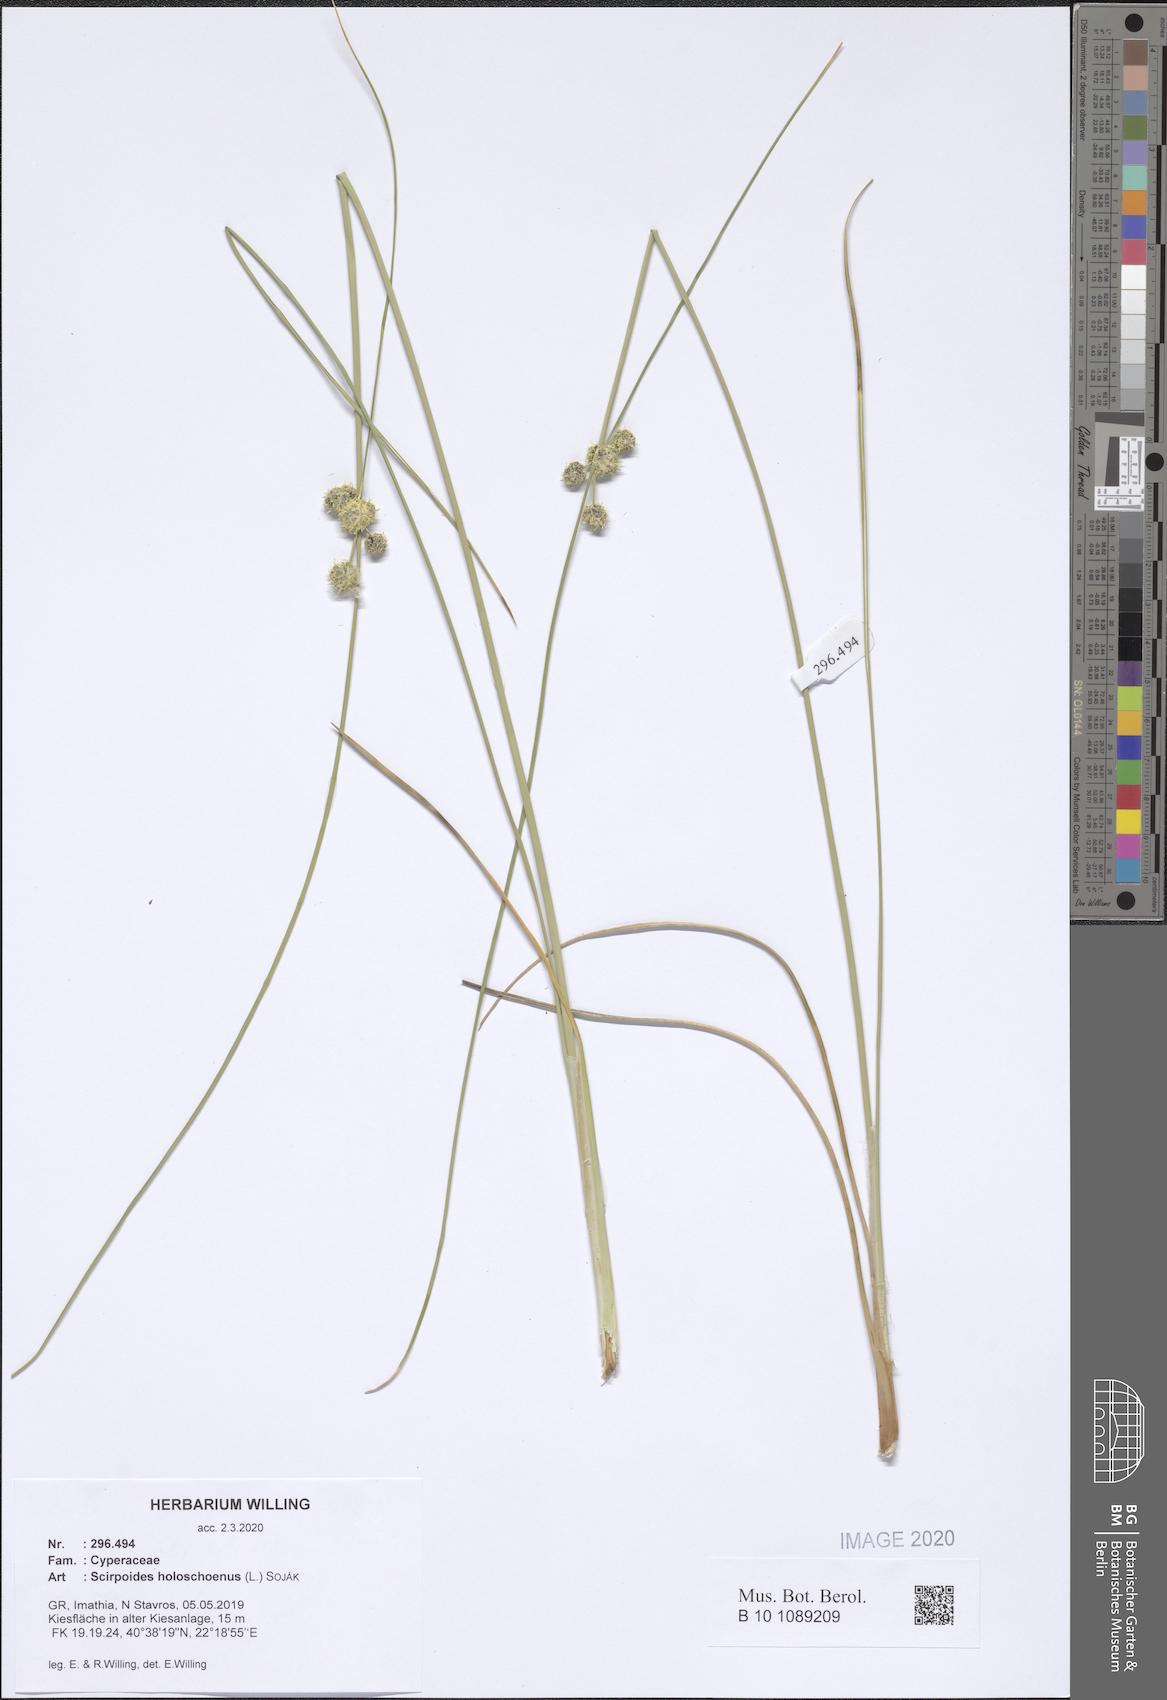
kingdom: Plantae
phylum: Tracheophyta
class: Liliopsida
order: Poales
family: Cyperaceae
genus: Scirpoides
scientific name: Scirpoides holoschoenus
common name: Round-headed club-rush
